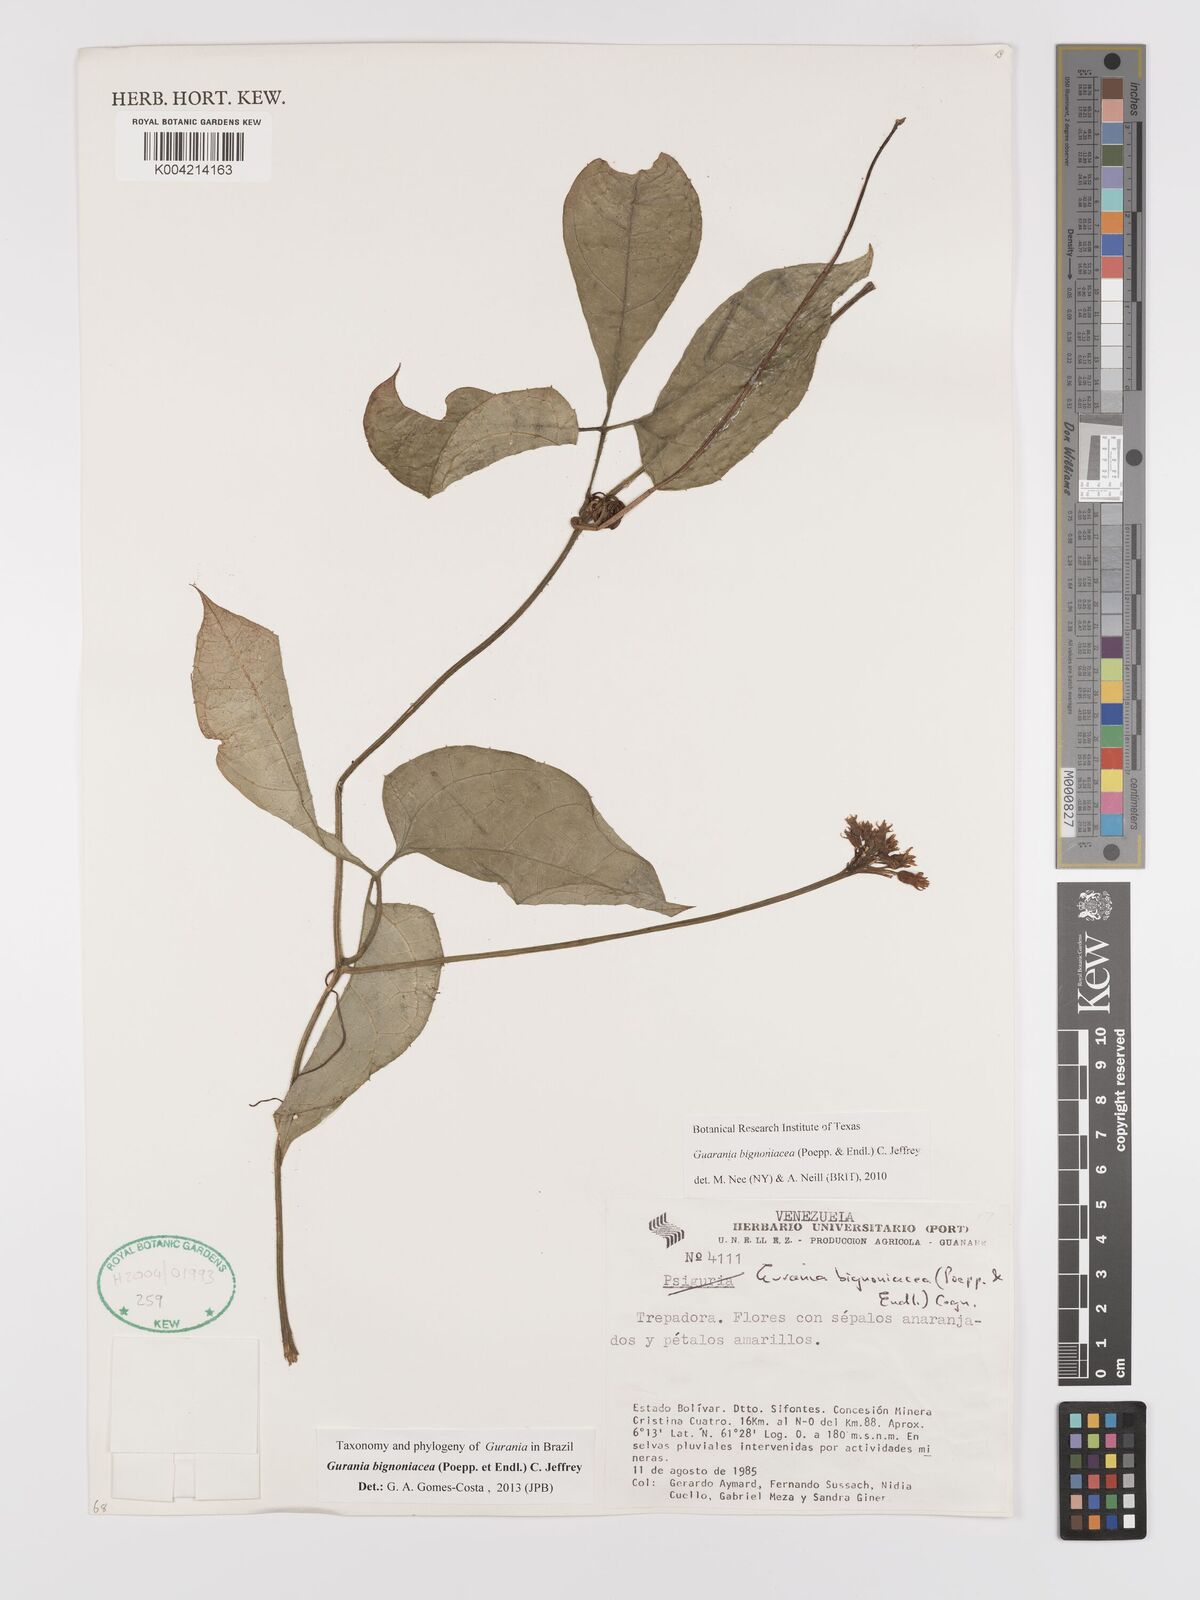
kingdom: Plantae
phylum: Tracheophyta
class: Magnoliopsida
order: Cucurbitales
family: Cucurbitaceae
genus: Gurania
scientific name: Gurania bignoniacea
